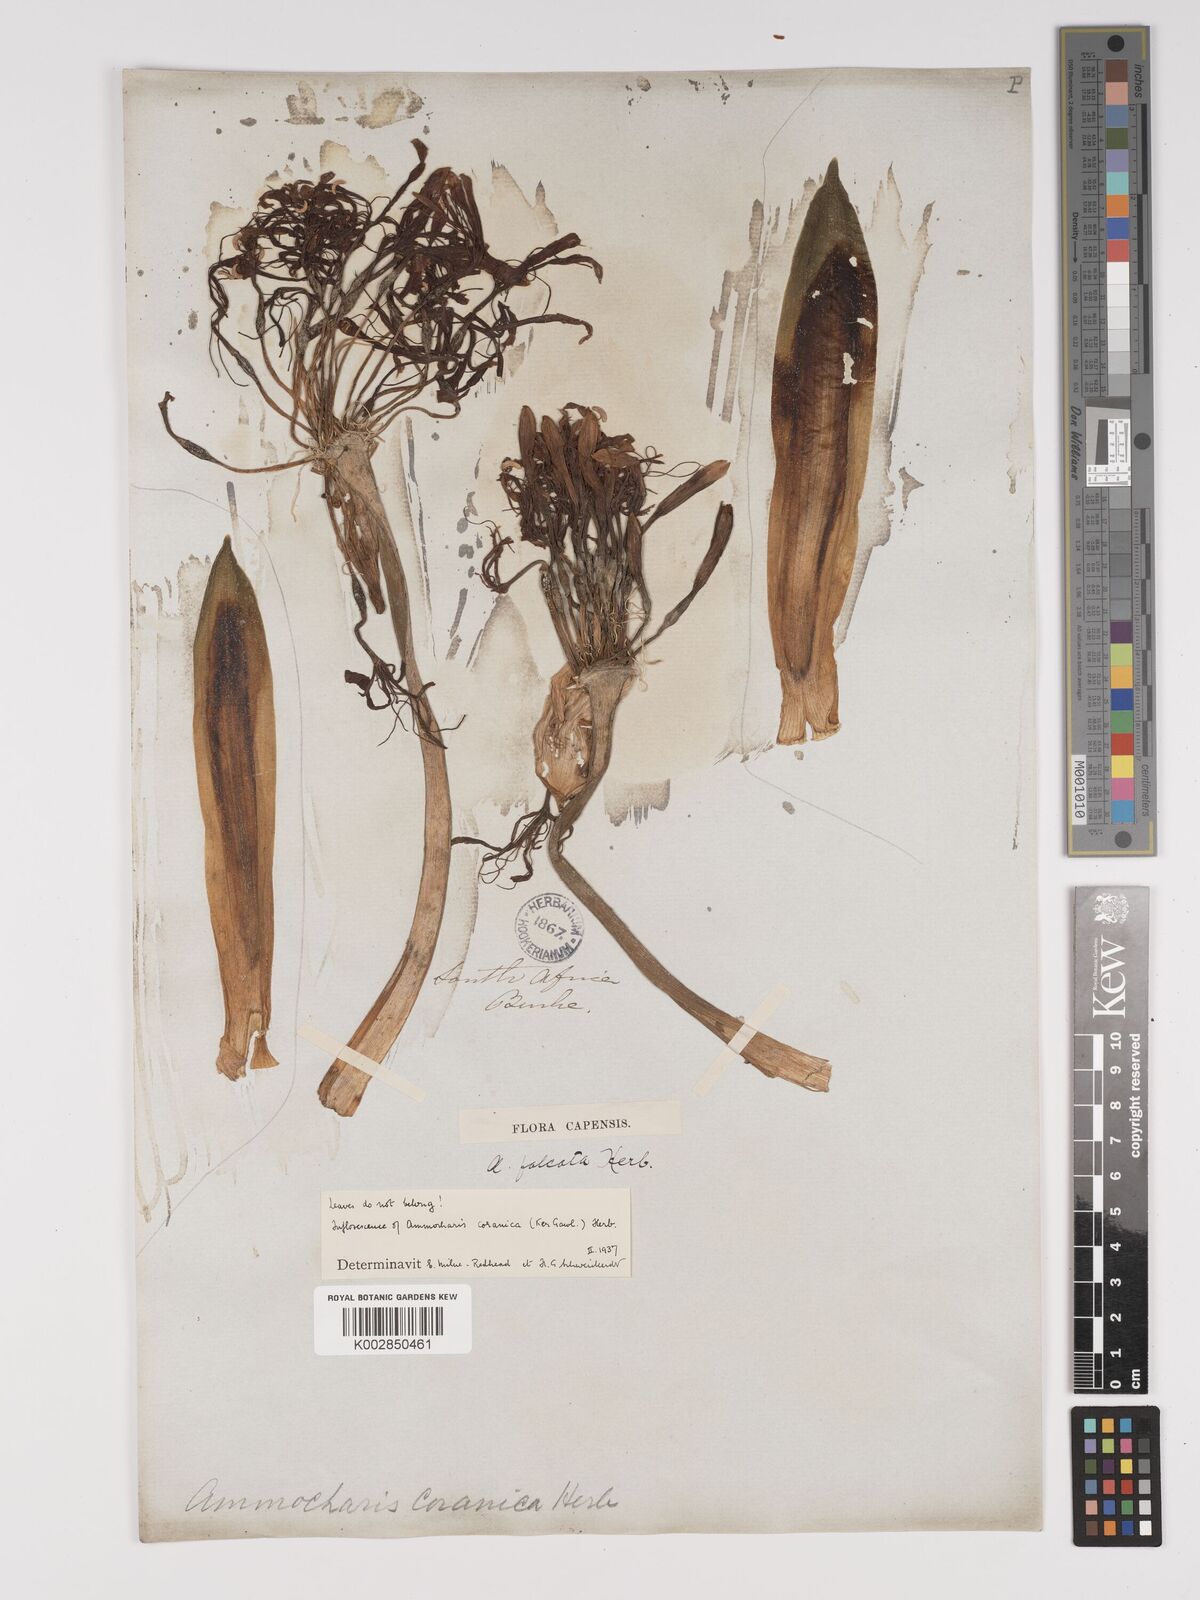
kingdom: Plantae
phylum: Tracheophyta
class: Liliopsida
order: Asparagales
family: Amaryllidaceae
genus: Ammocharis
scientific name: Ammocharis coranica
